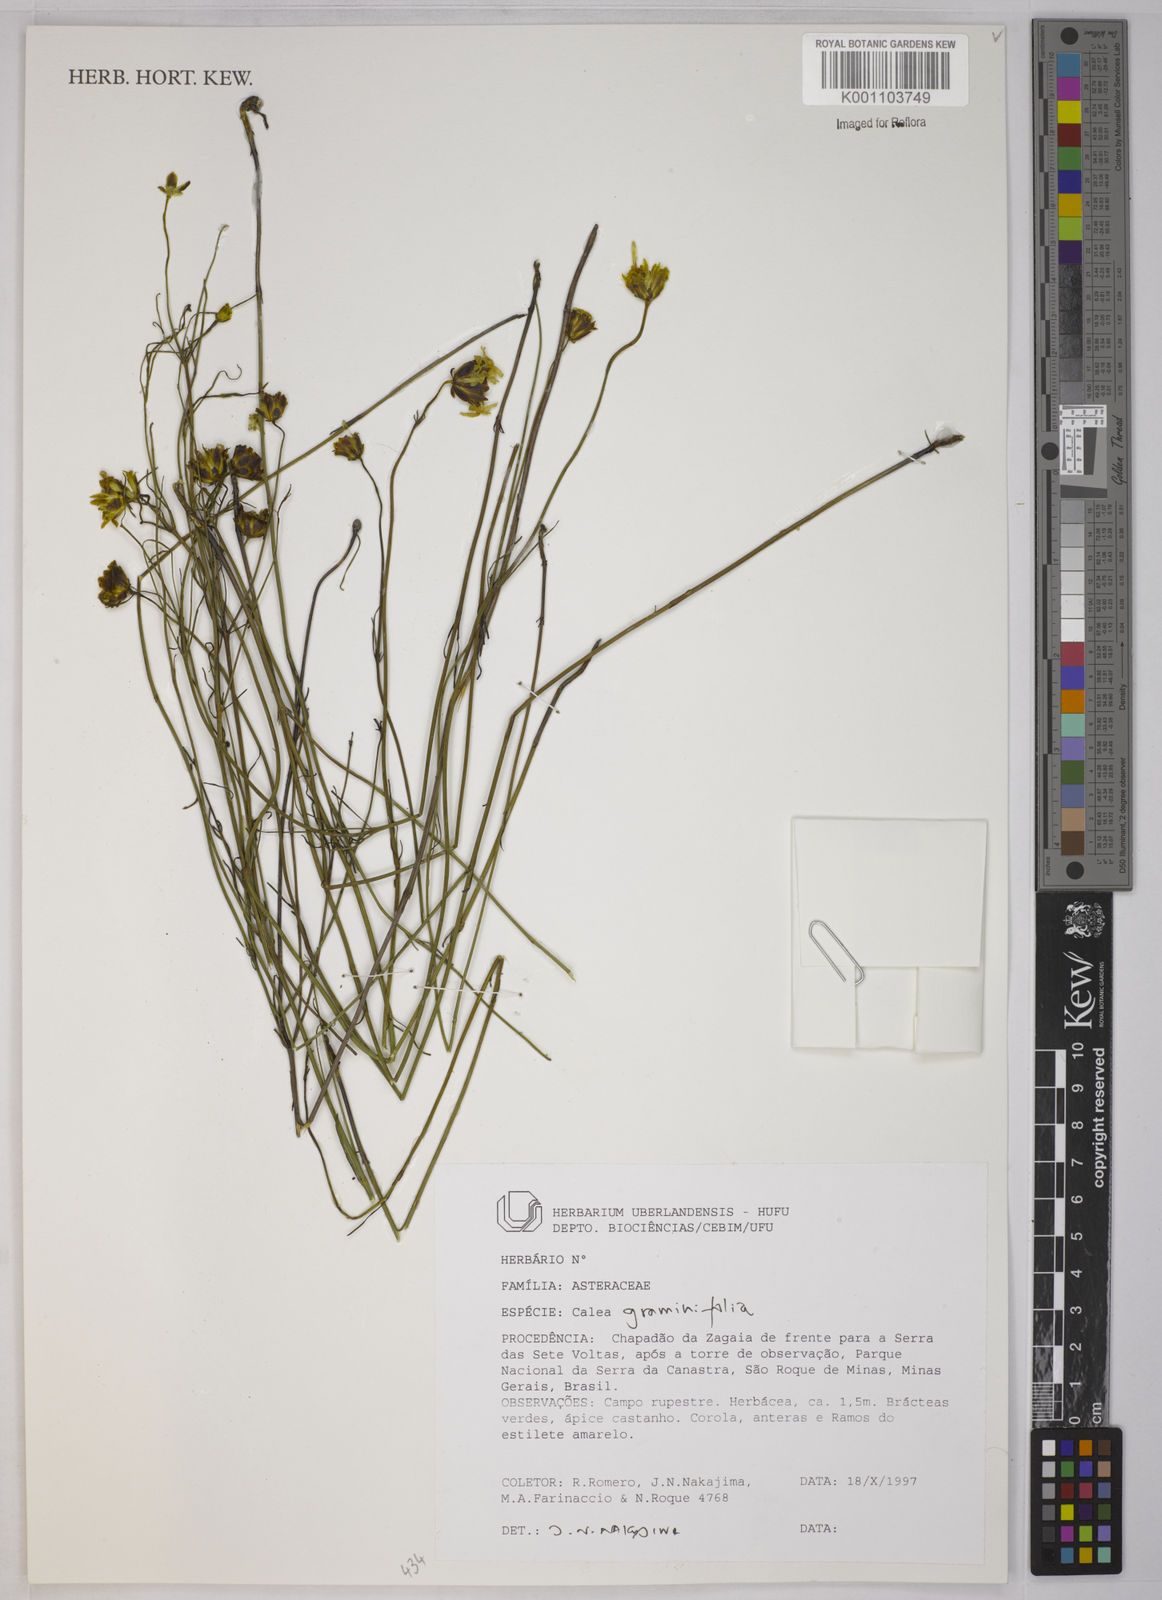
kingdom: Plantae
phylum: Tracheophyta
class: Magnoliopsida
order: Asterales
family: Asteraceae
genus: Calea
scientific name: Calea graminifolia
